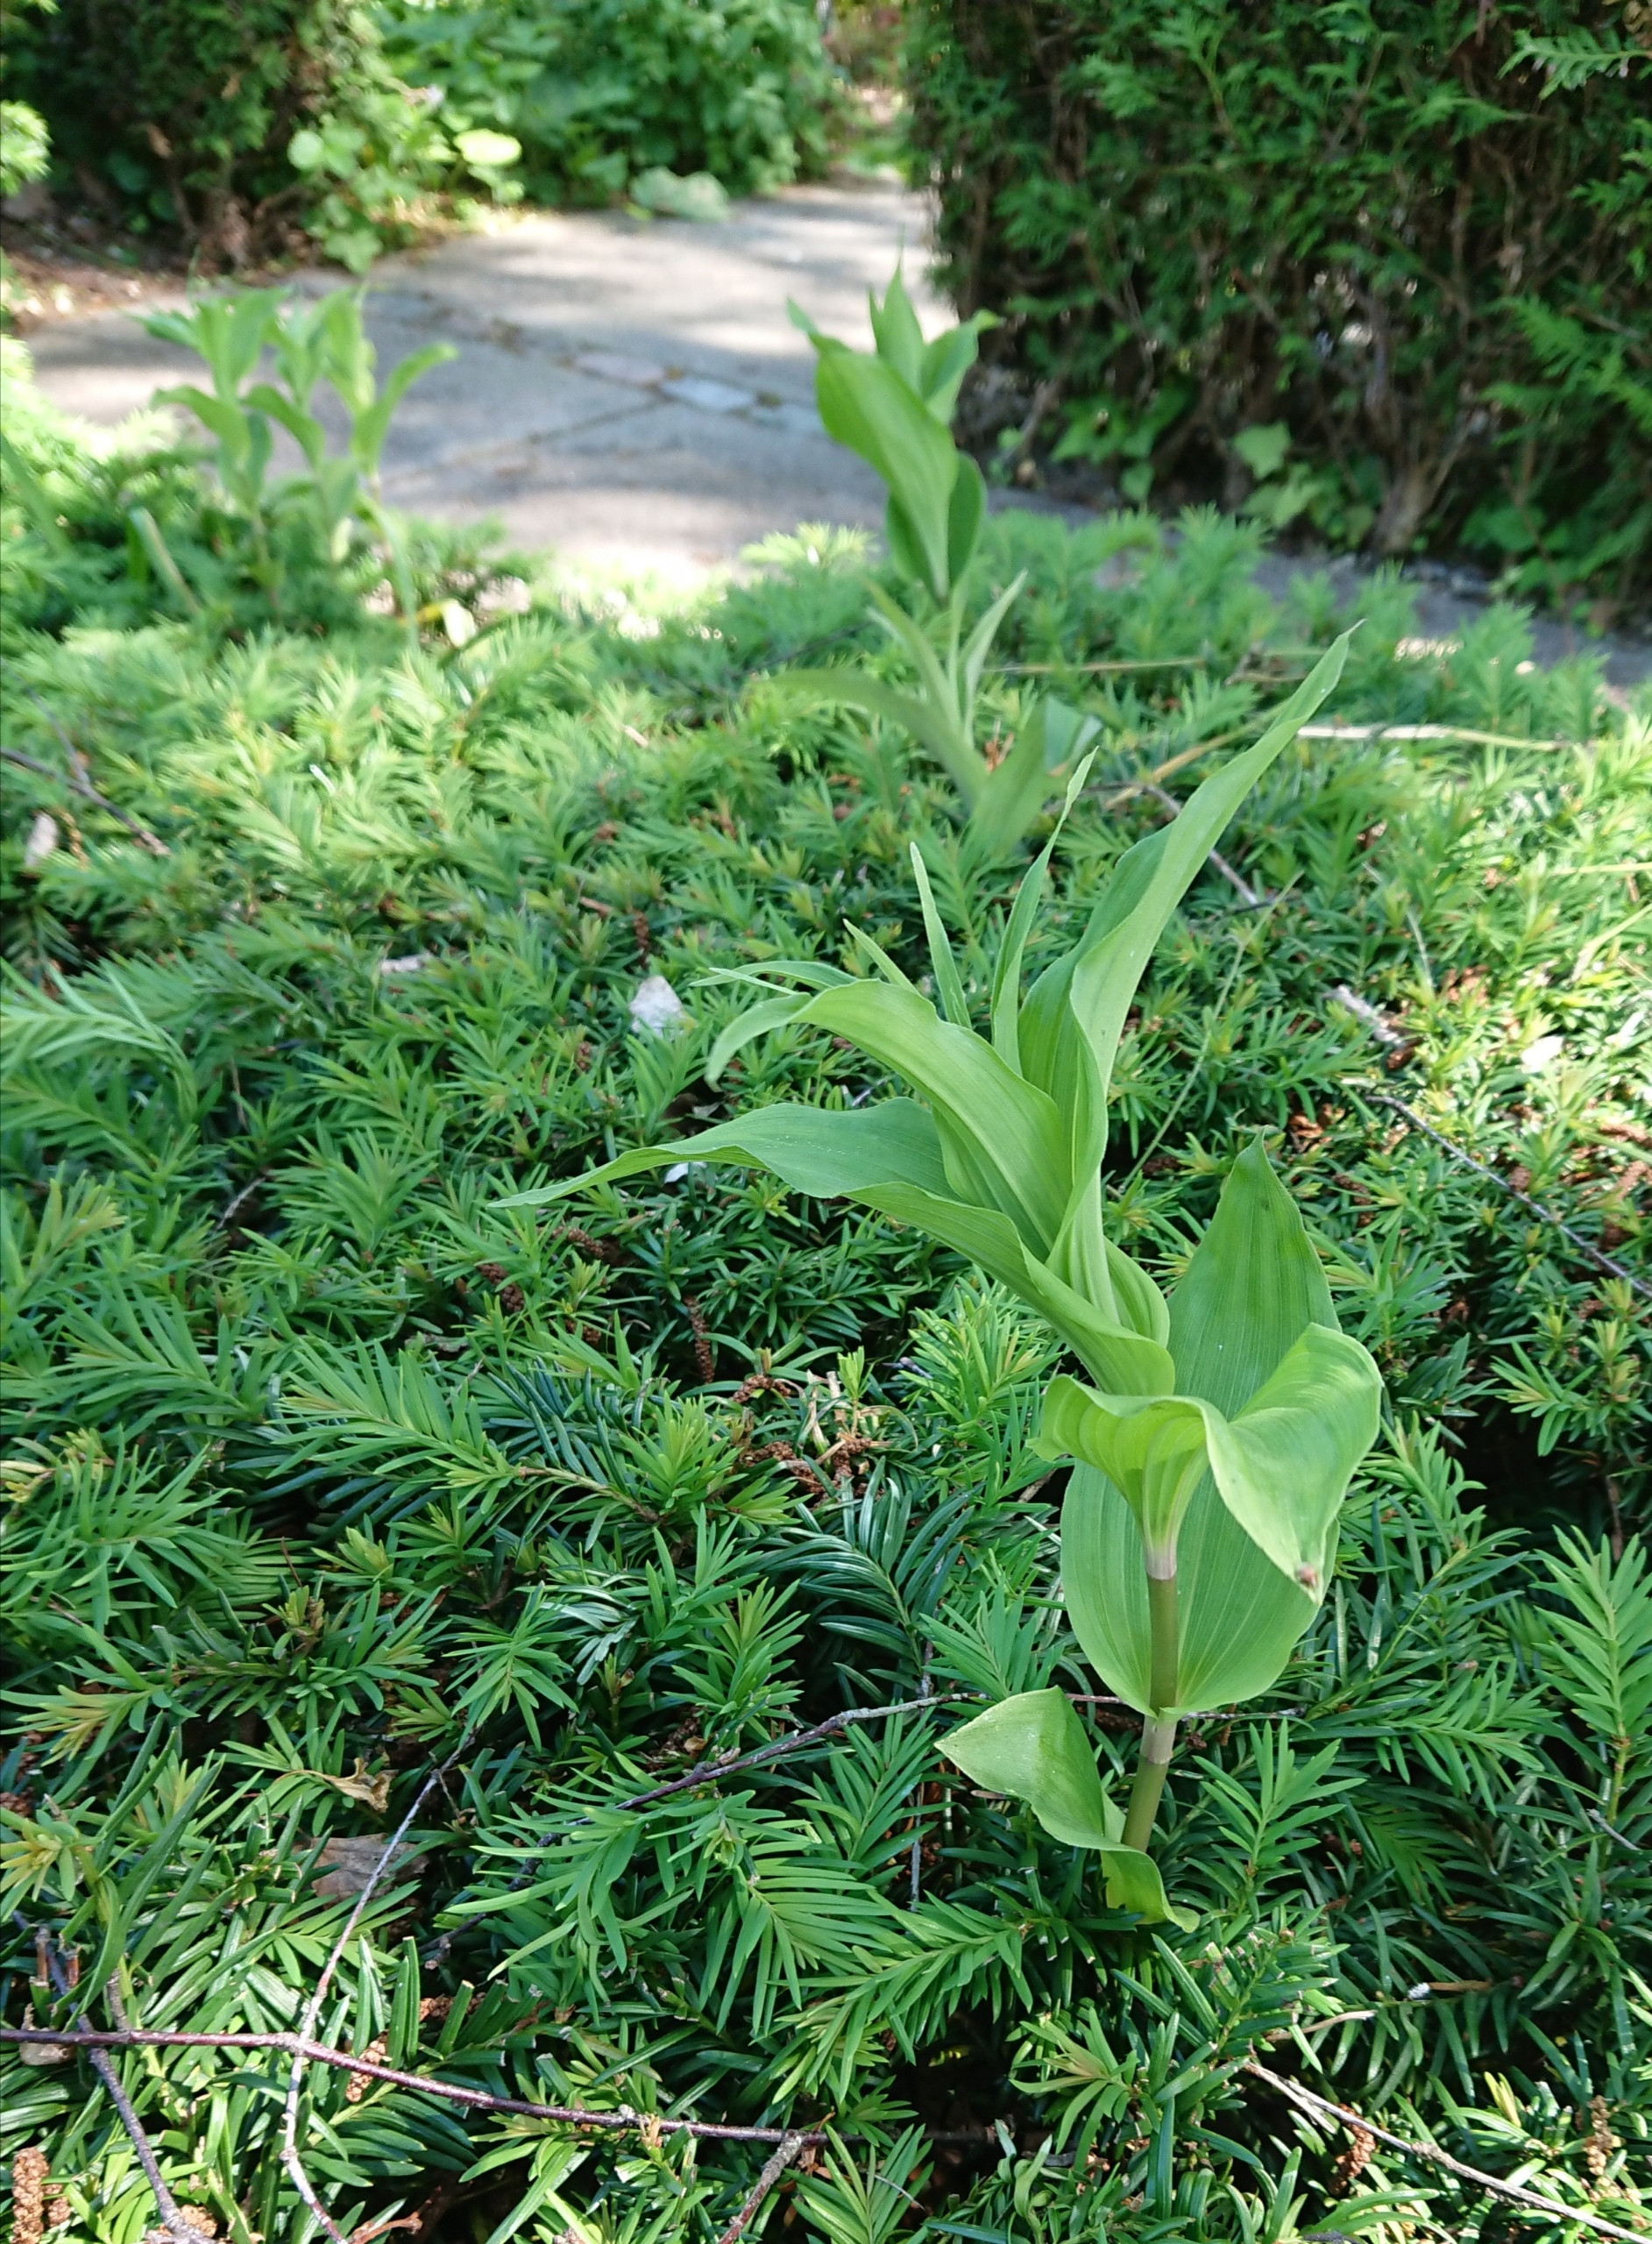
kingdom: Plantae
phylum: Tracheophyta
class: Liliopsida
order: Asparagales
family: Orchidaceae
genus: Epipactis
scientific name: Epipactis helleborine
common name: Skov-hullæbe
